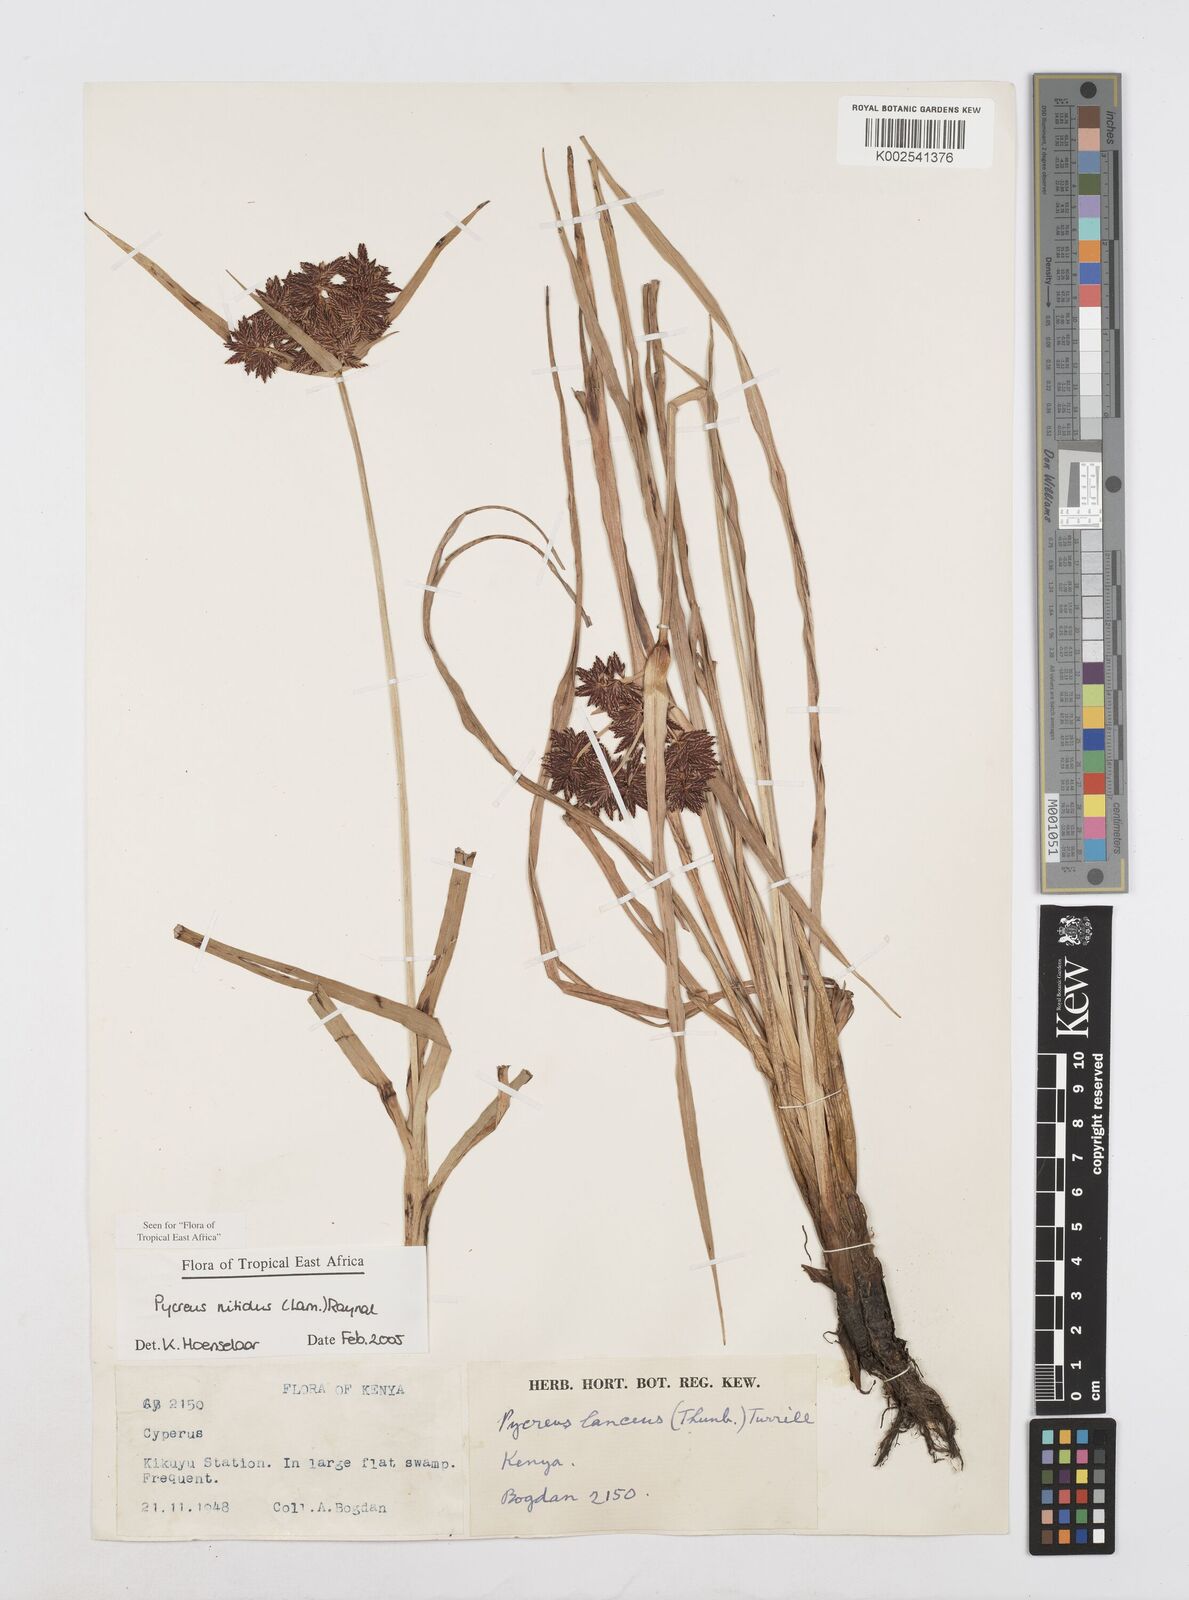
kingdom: Plantae
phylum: Tracheophyta
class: Liliopsida
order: Poales
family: Cyperaceae
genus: Cyperus
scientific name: Cyperus nitidus
